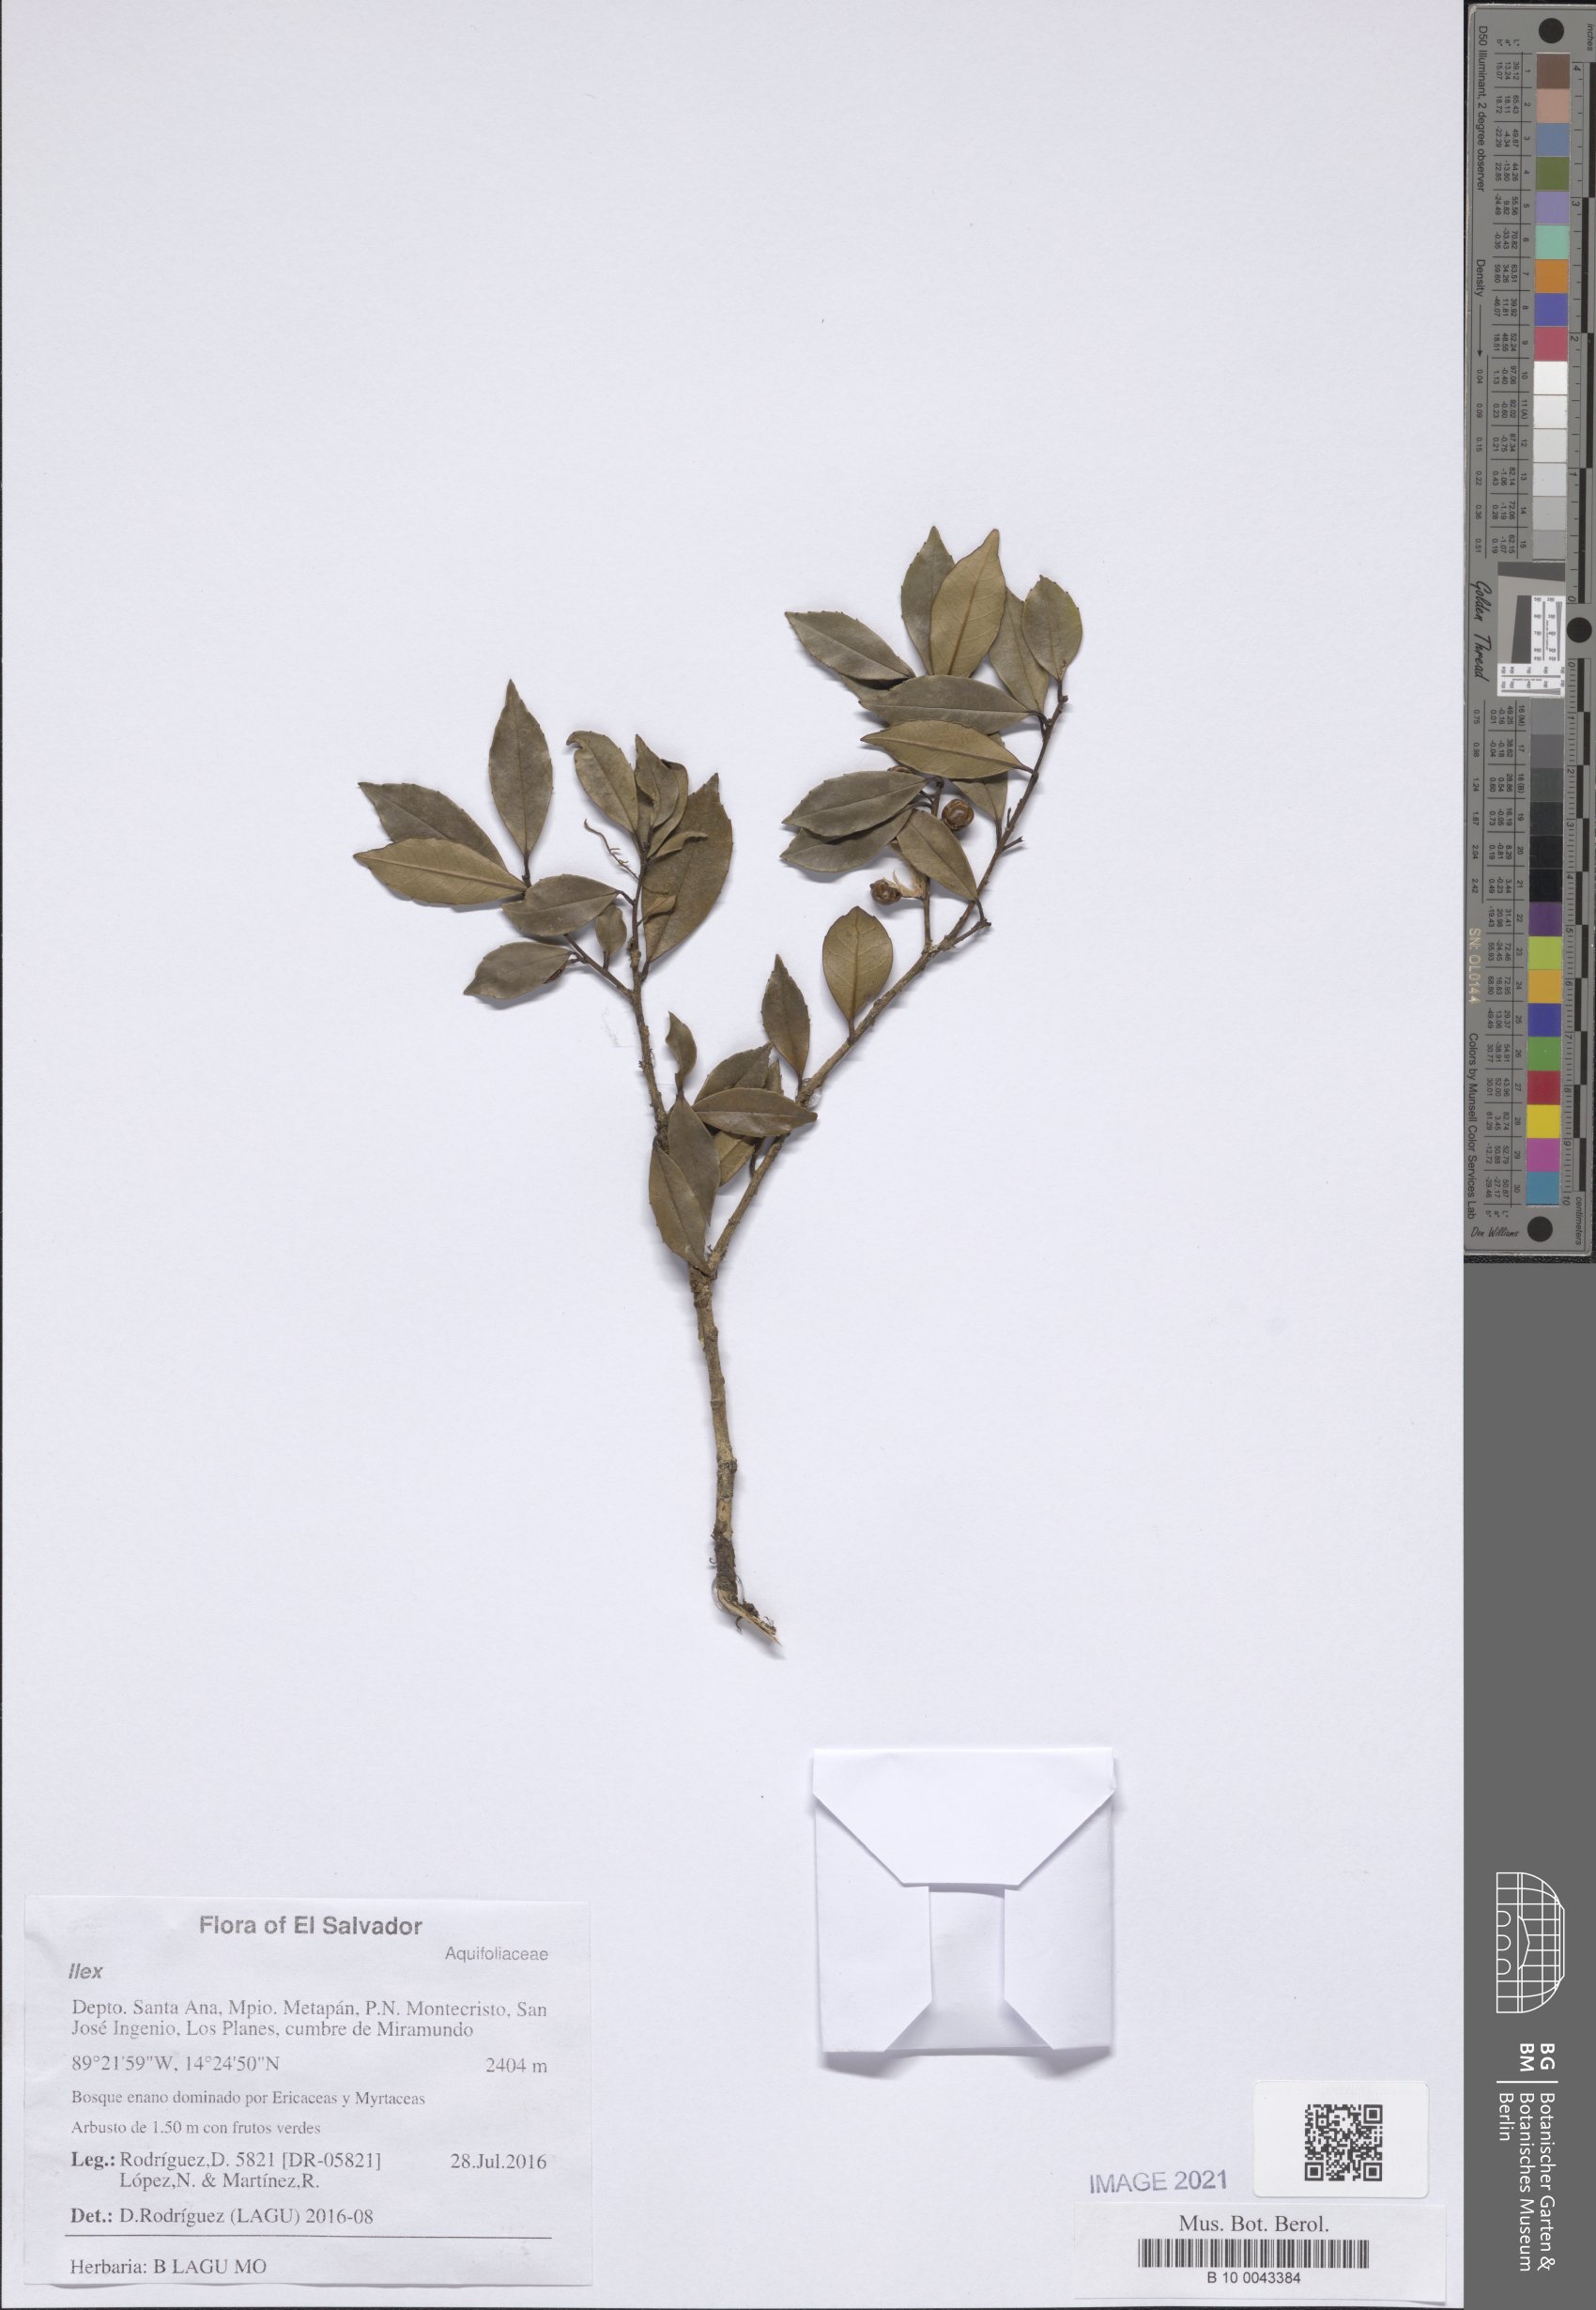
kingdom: Plantae
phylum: Tracheophyta
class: Magnoliopsida
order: Aquifoliales
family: Aquifoliaceae
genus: Ilex
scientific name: Ilex pallida
